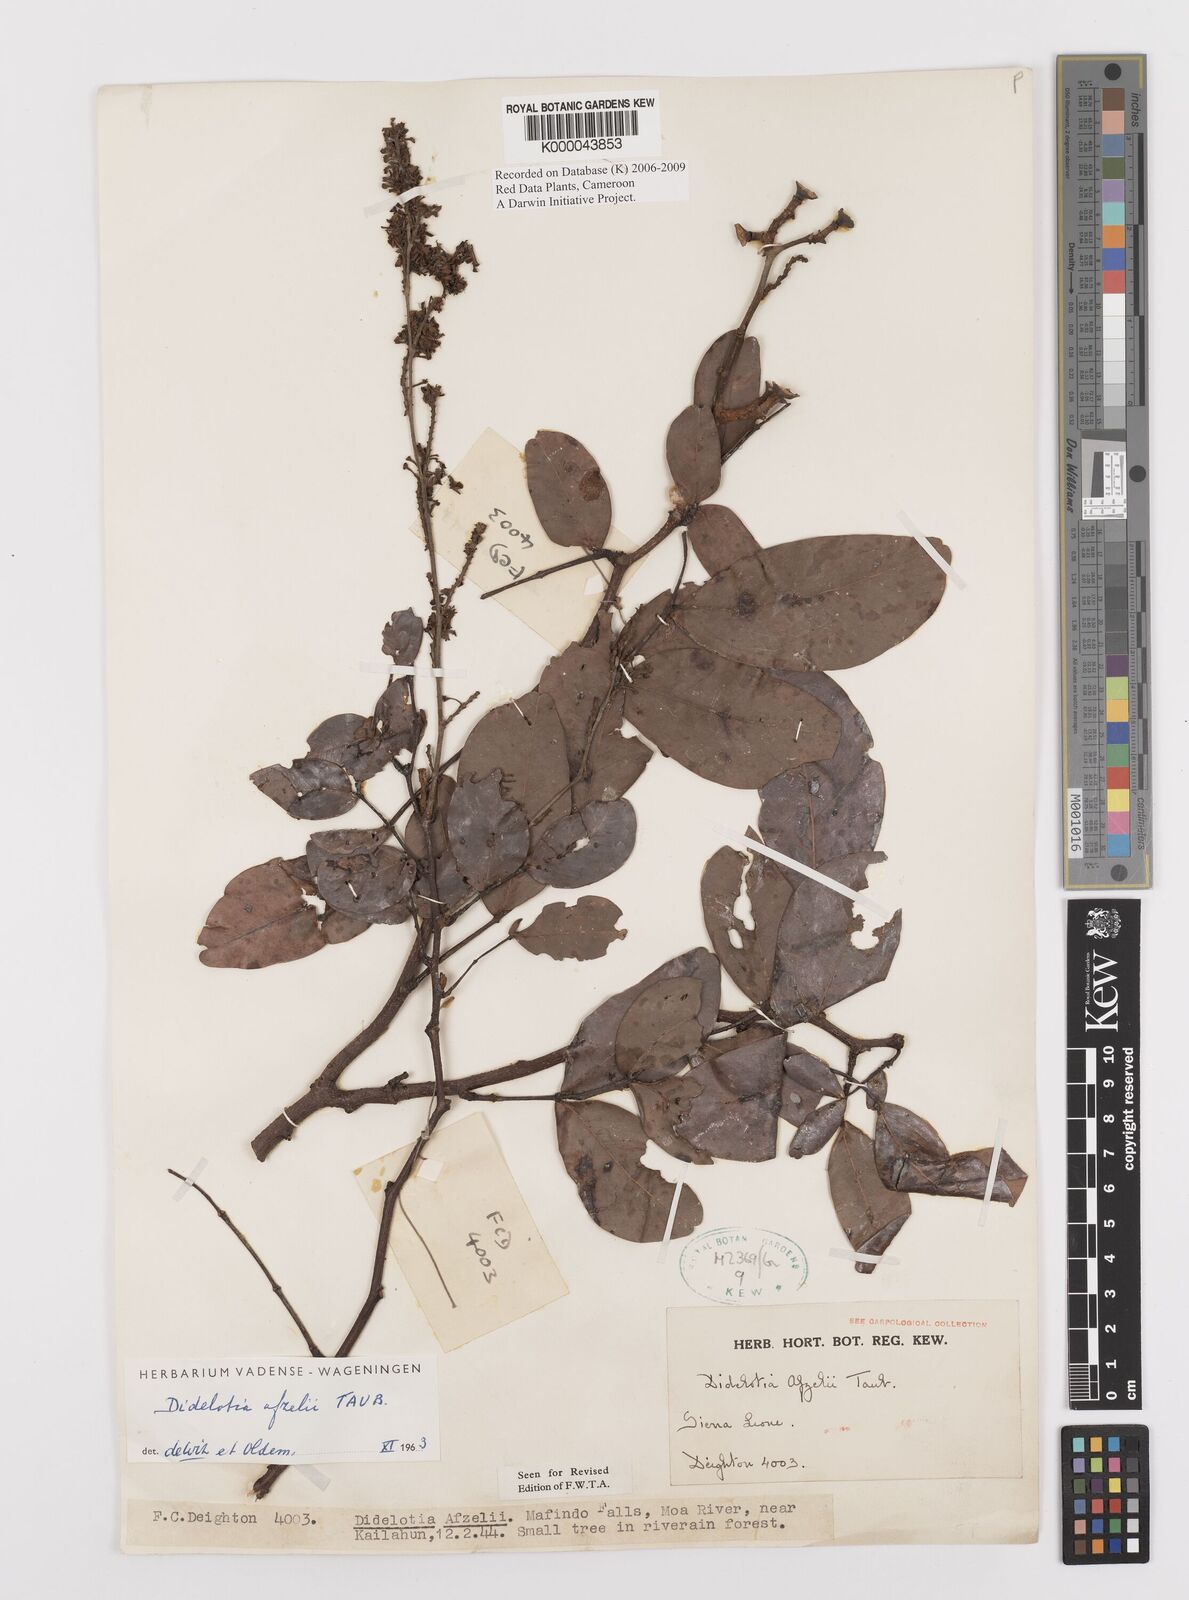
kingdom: Plantae
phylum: Tracheophyta
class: Magnoliopsida
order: Fabales
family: Fabaceae
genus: Didelotia
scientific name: Didelotia
